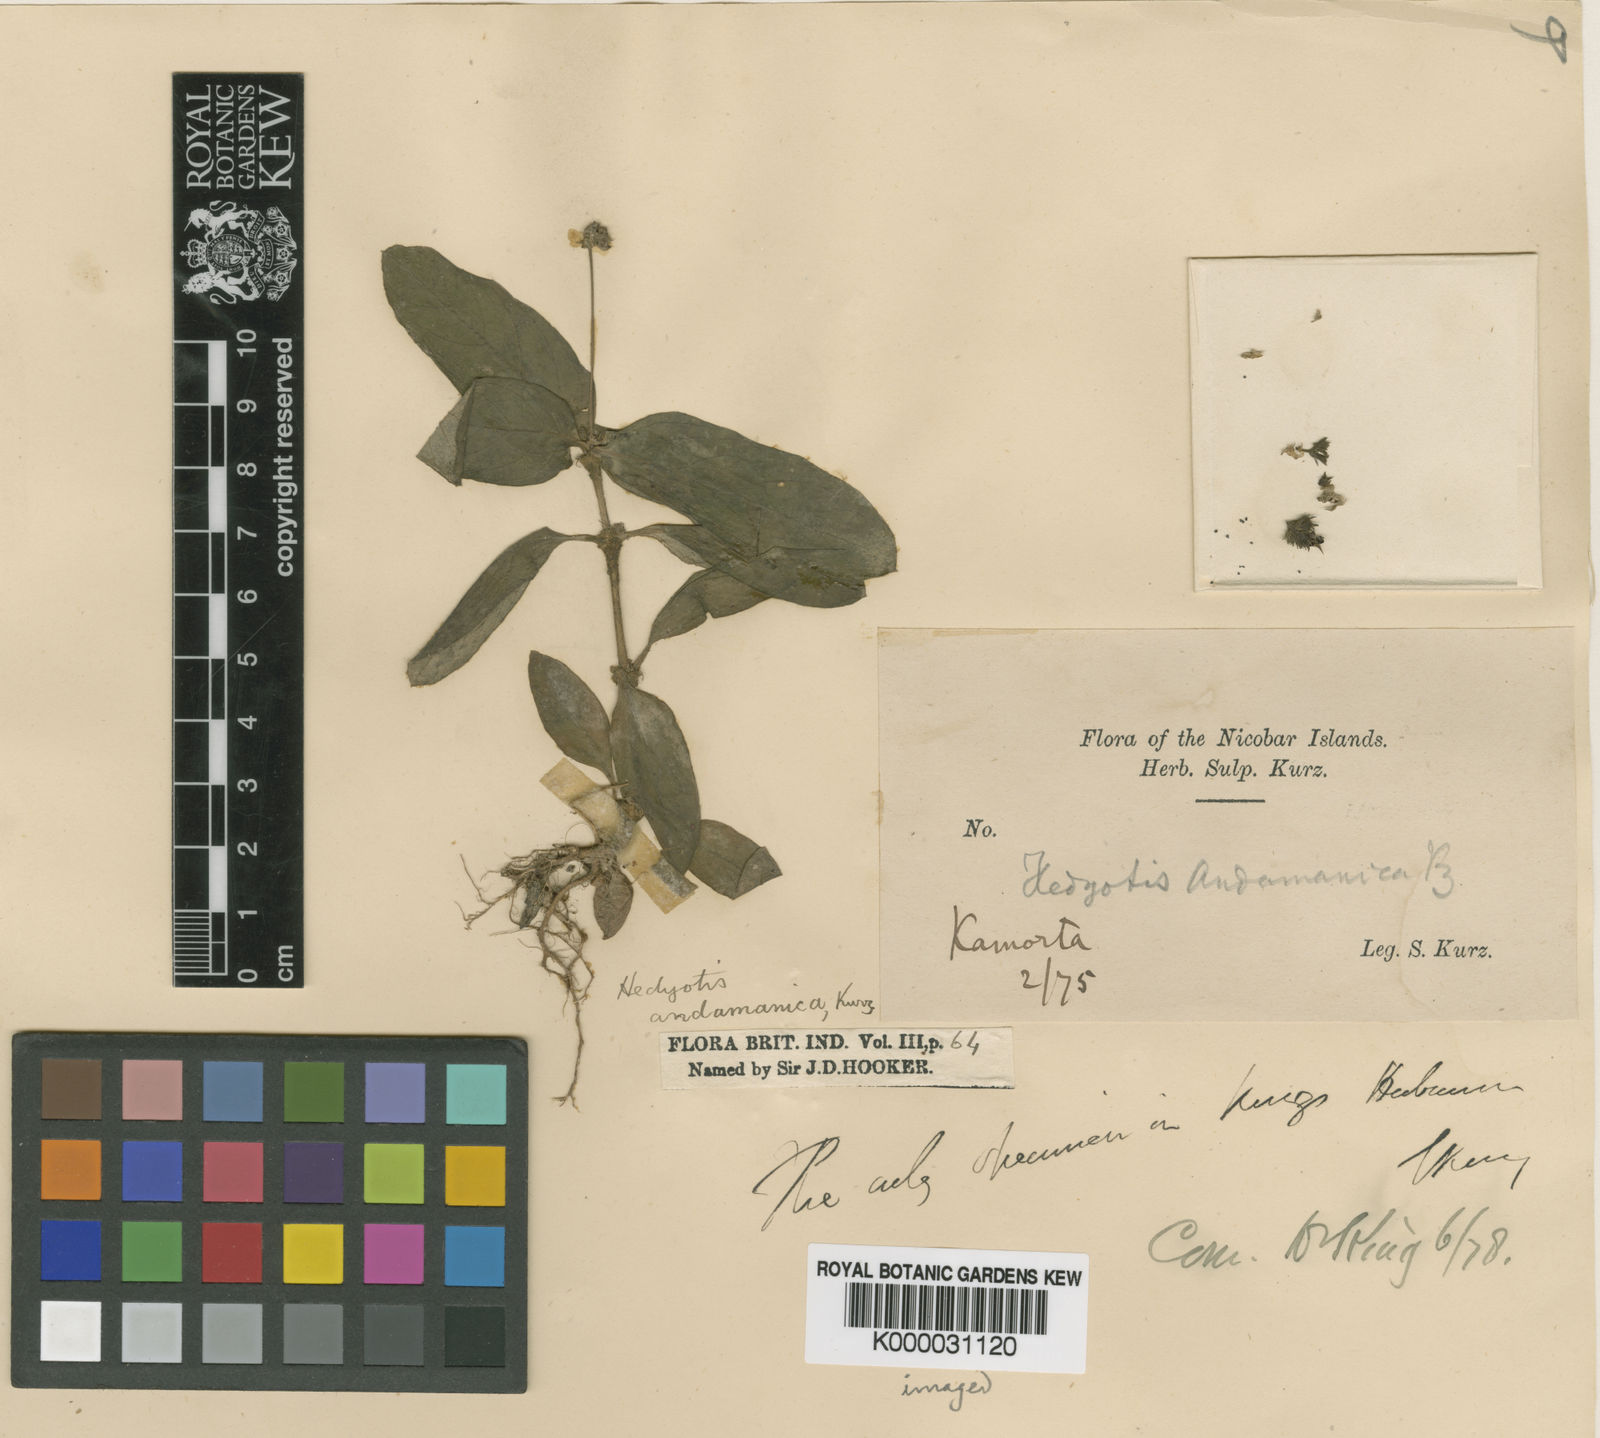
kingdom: Plantae
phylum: Tracheophyta
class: Magnoliopsida
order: Gentianales
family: Rubiaceae
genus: Debia
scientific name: Debia andamanica
